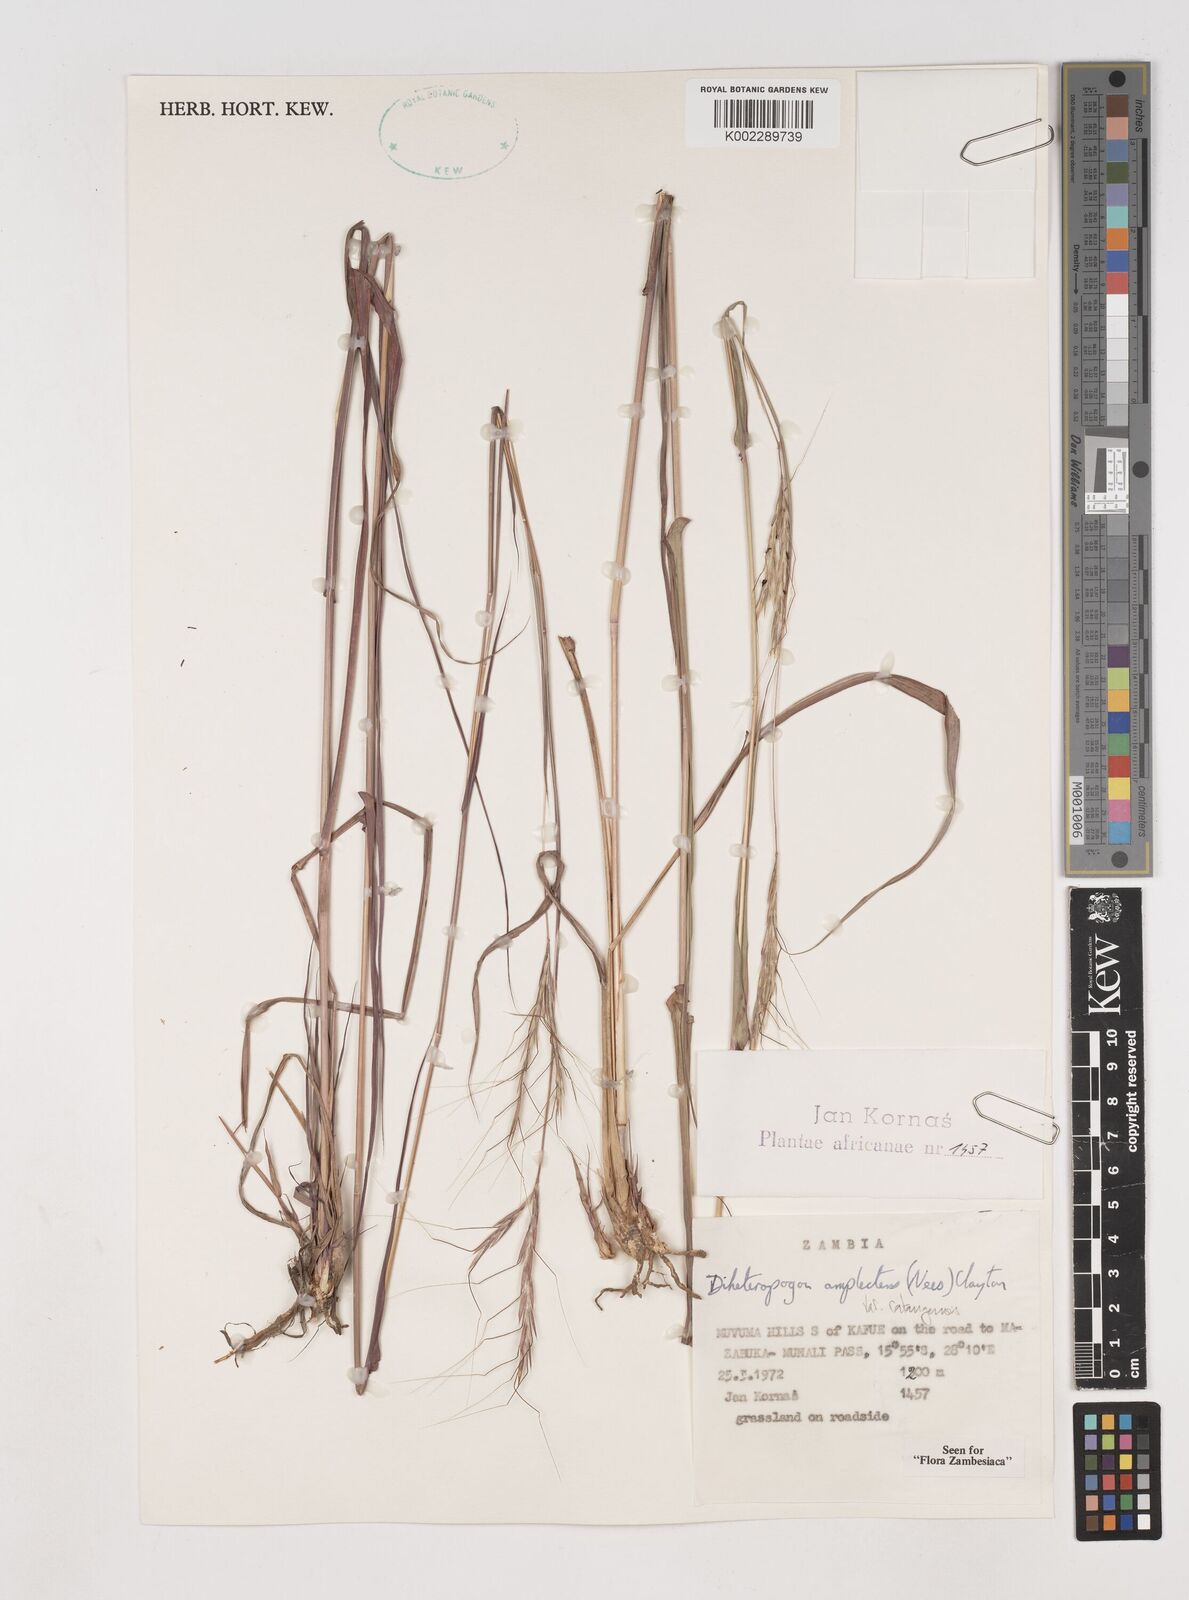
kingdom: Plantae
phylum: Tracheophyta
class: Liliopsida
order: Poales
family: Poaceae
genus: Diheteropogon
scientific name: Diheteropogon amplectens
